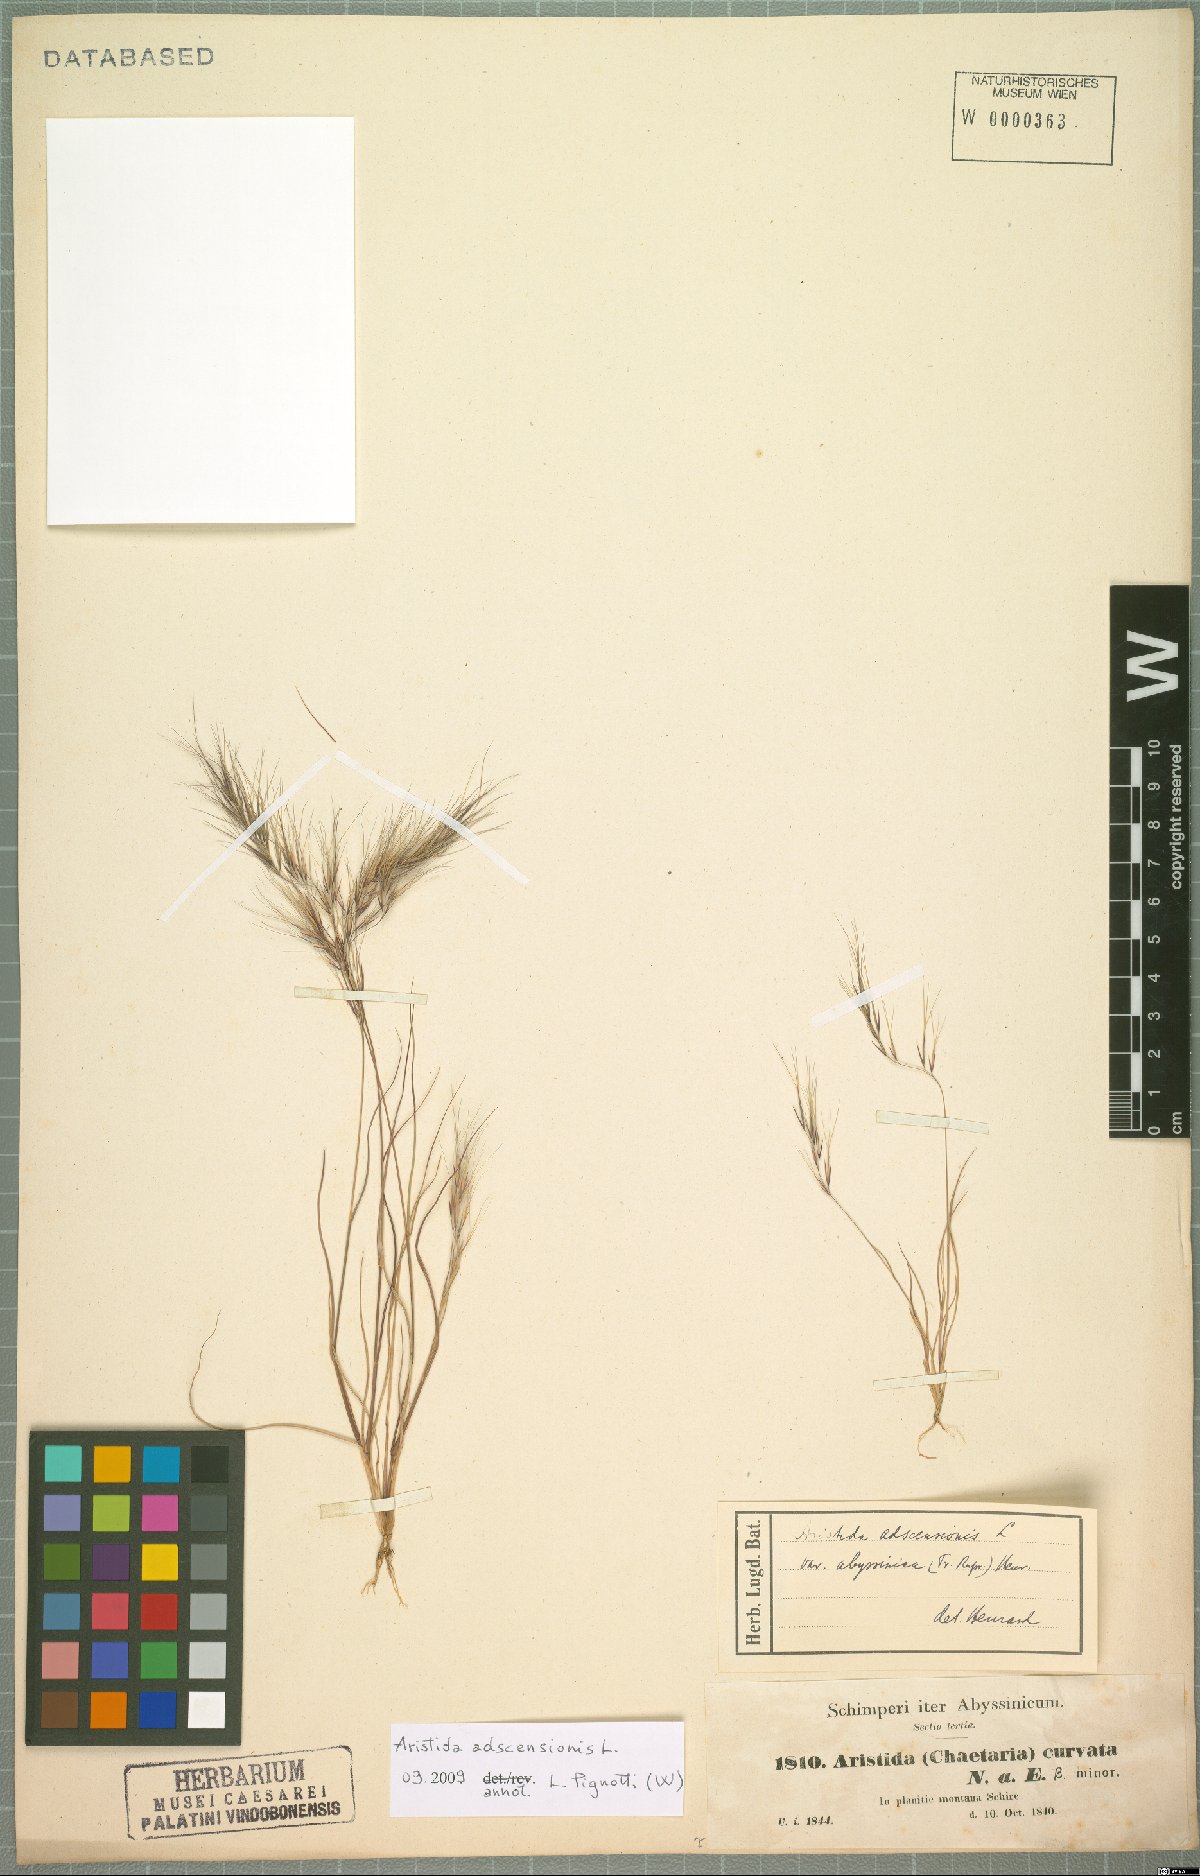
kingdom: Plantae
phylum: Tracheophyta
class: Liliopsida
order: Poales
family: Poaceae
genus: Aristida
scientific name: Aristida adscensionis
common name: Sixweeks threeawn
